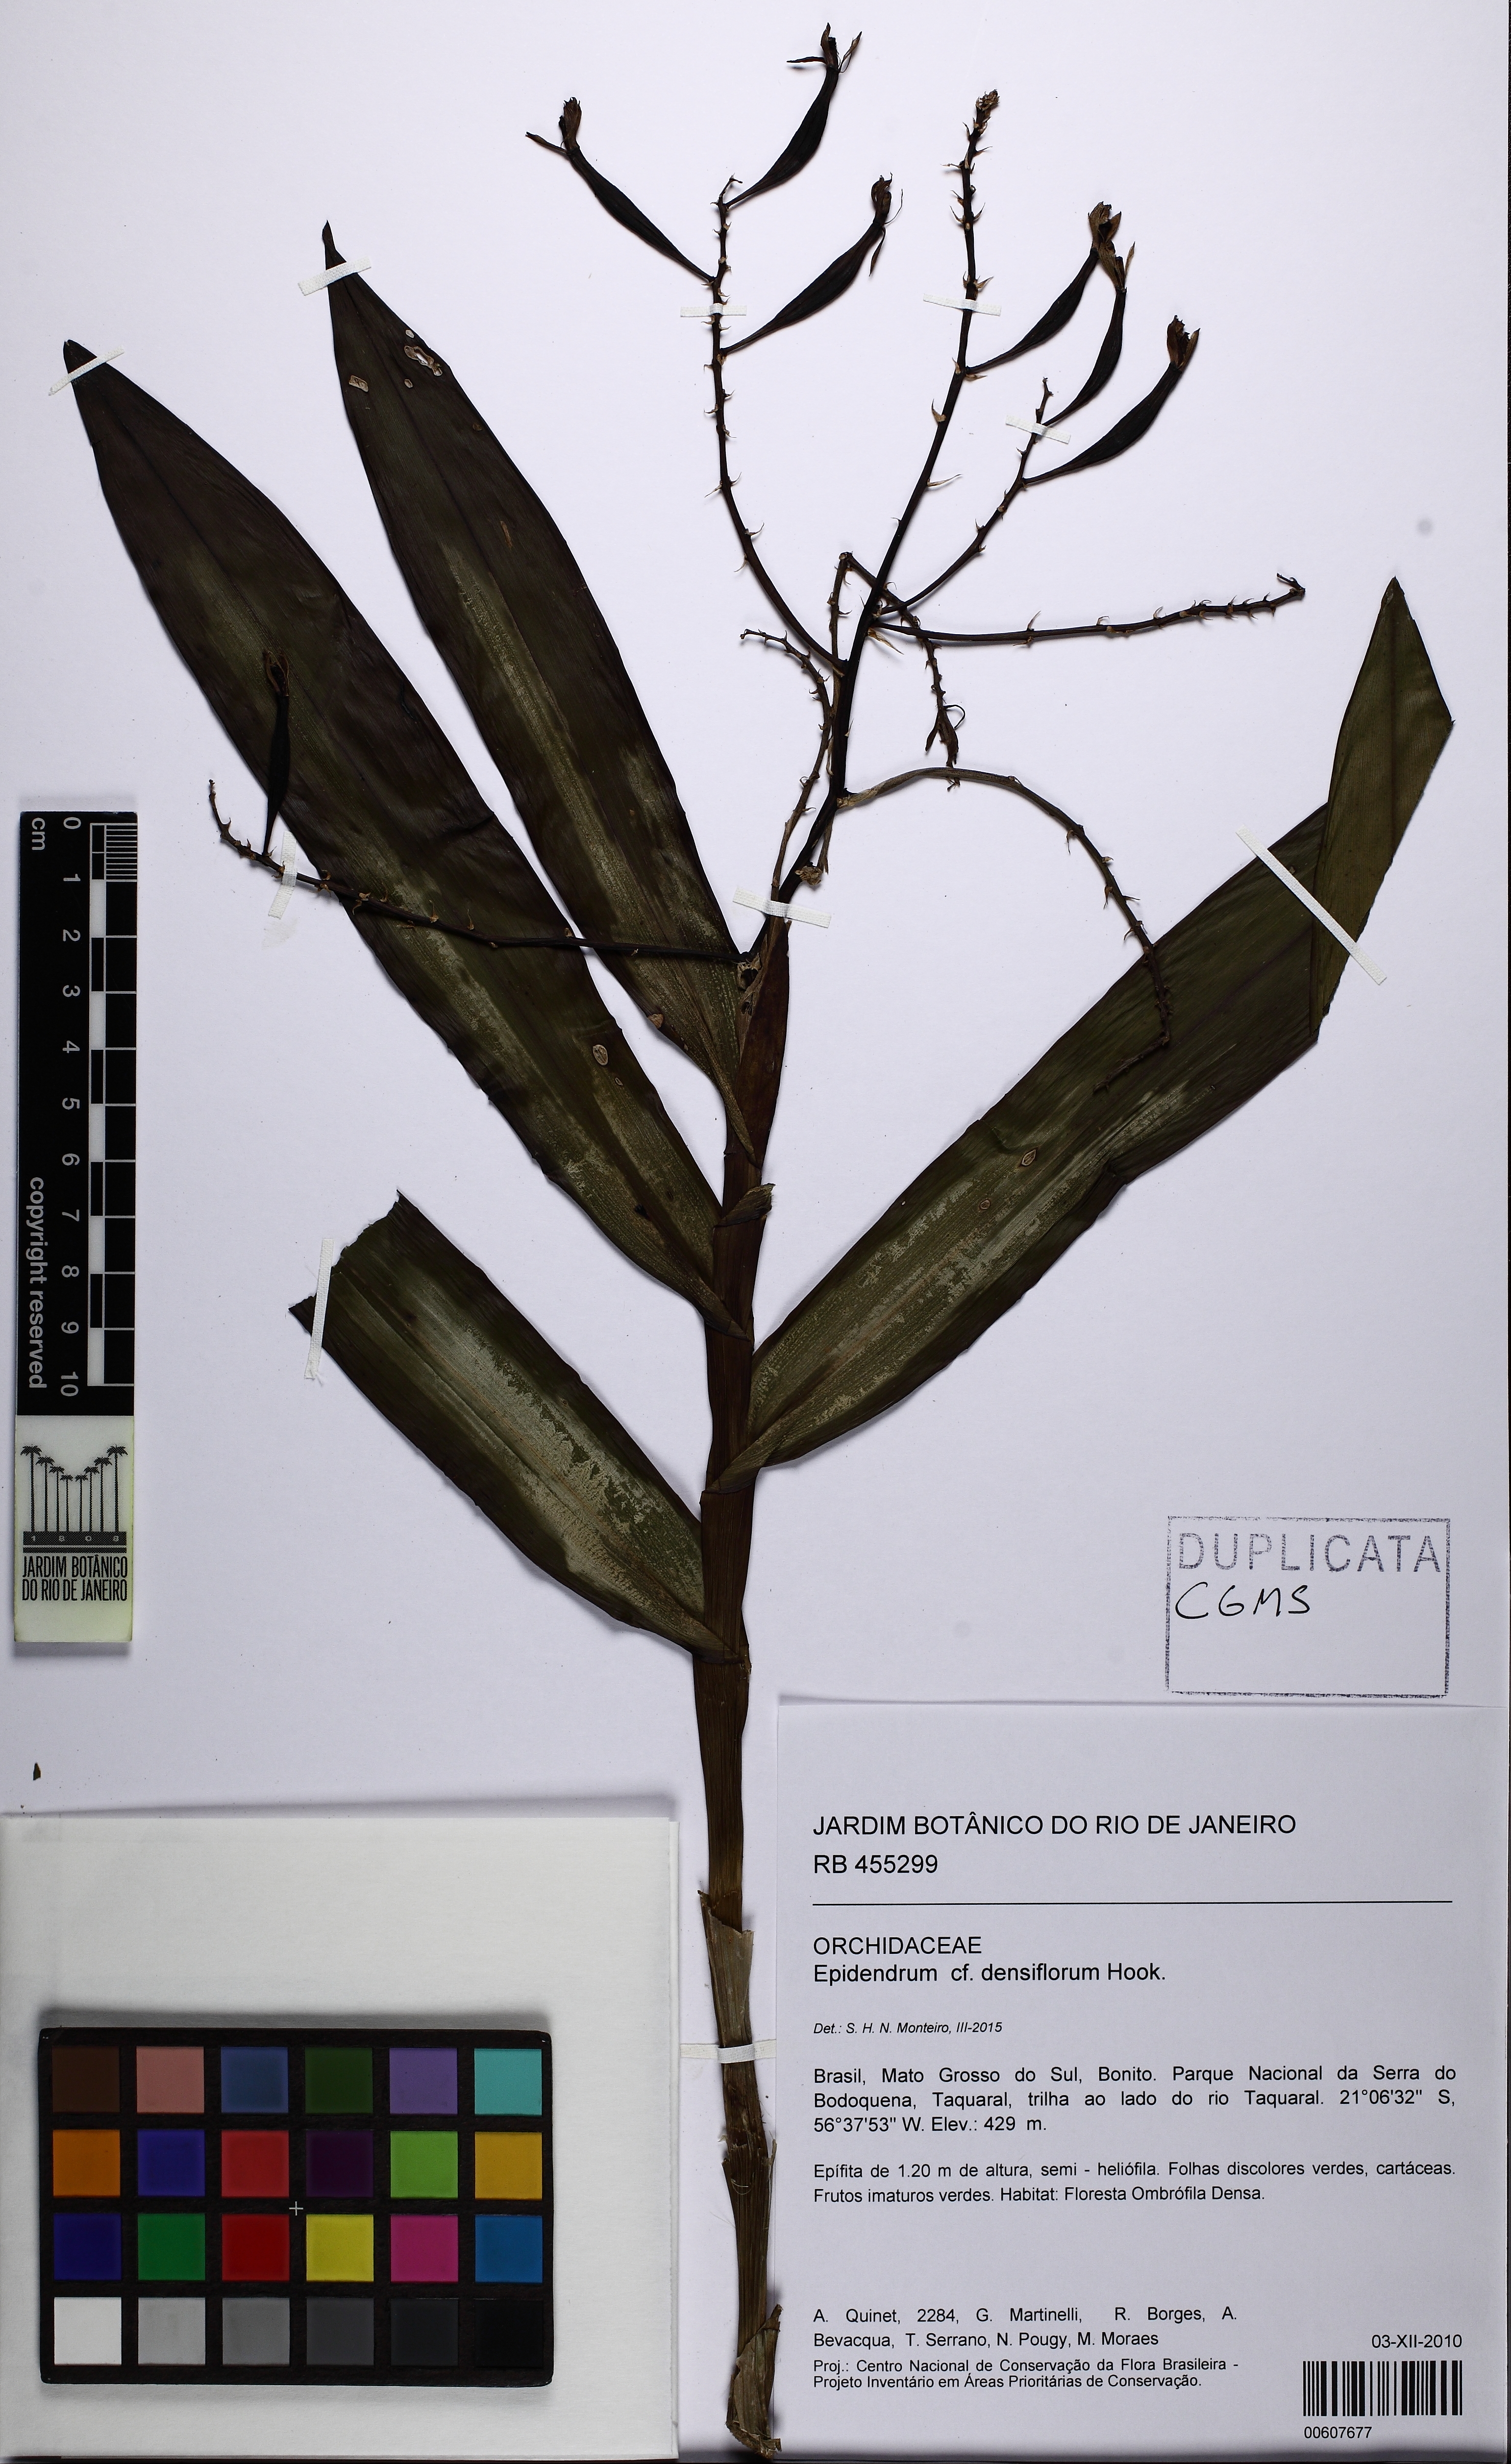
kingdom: Plantae
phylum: Tracheophyta
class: Liliopsida
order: Asparagales
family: Orchidaceae
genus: Epidendrum
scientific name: Epidendrum densiflorum
